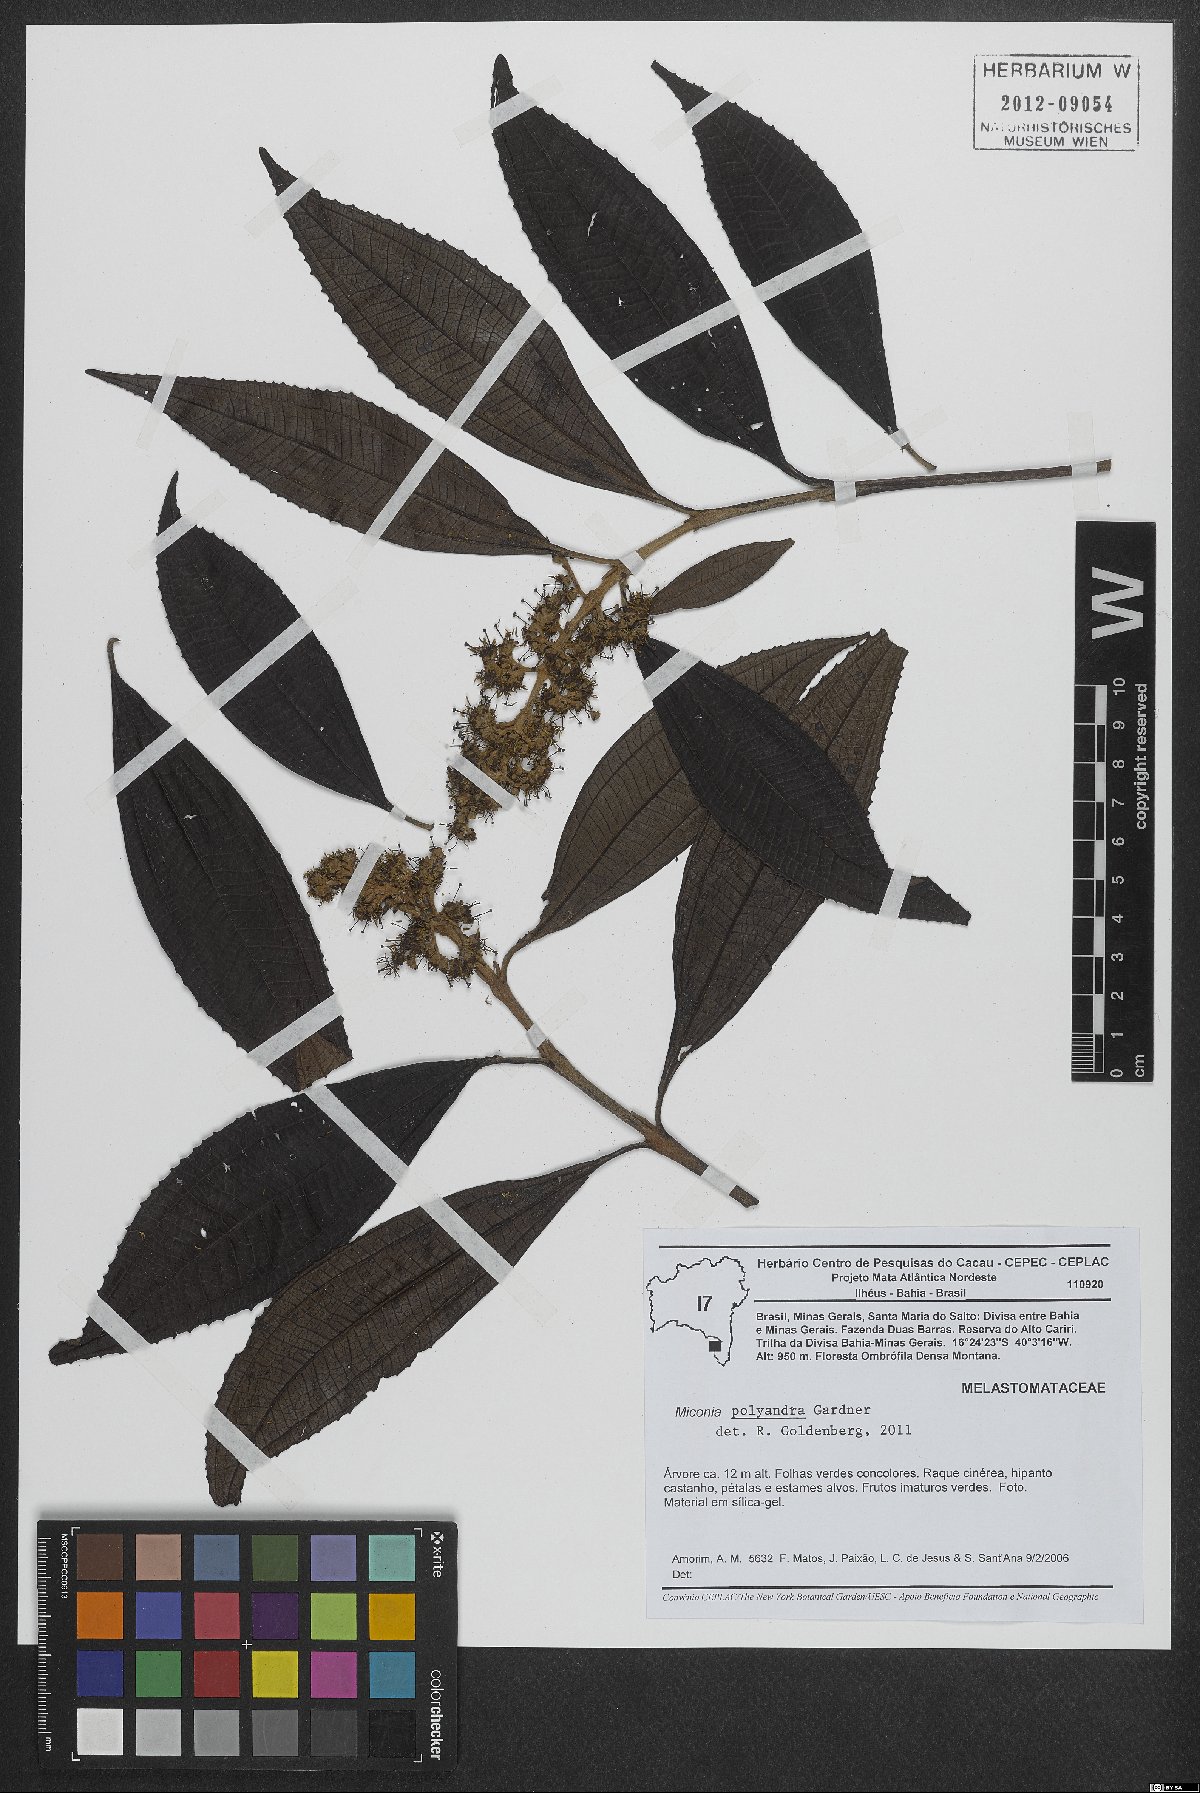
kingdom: Plantae
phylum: Tracheophyta
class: Magnoliopsida
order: Myrtales
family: Melastomataceae
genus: Miconia
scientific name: Miconia polyandra
